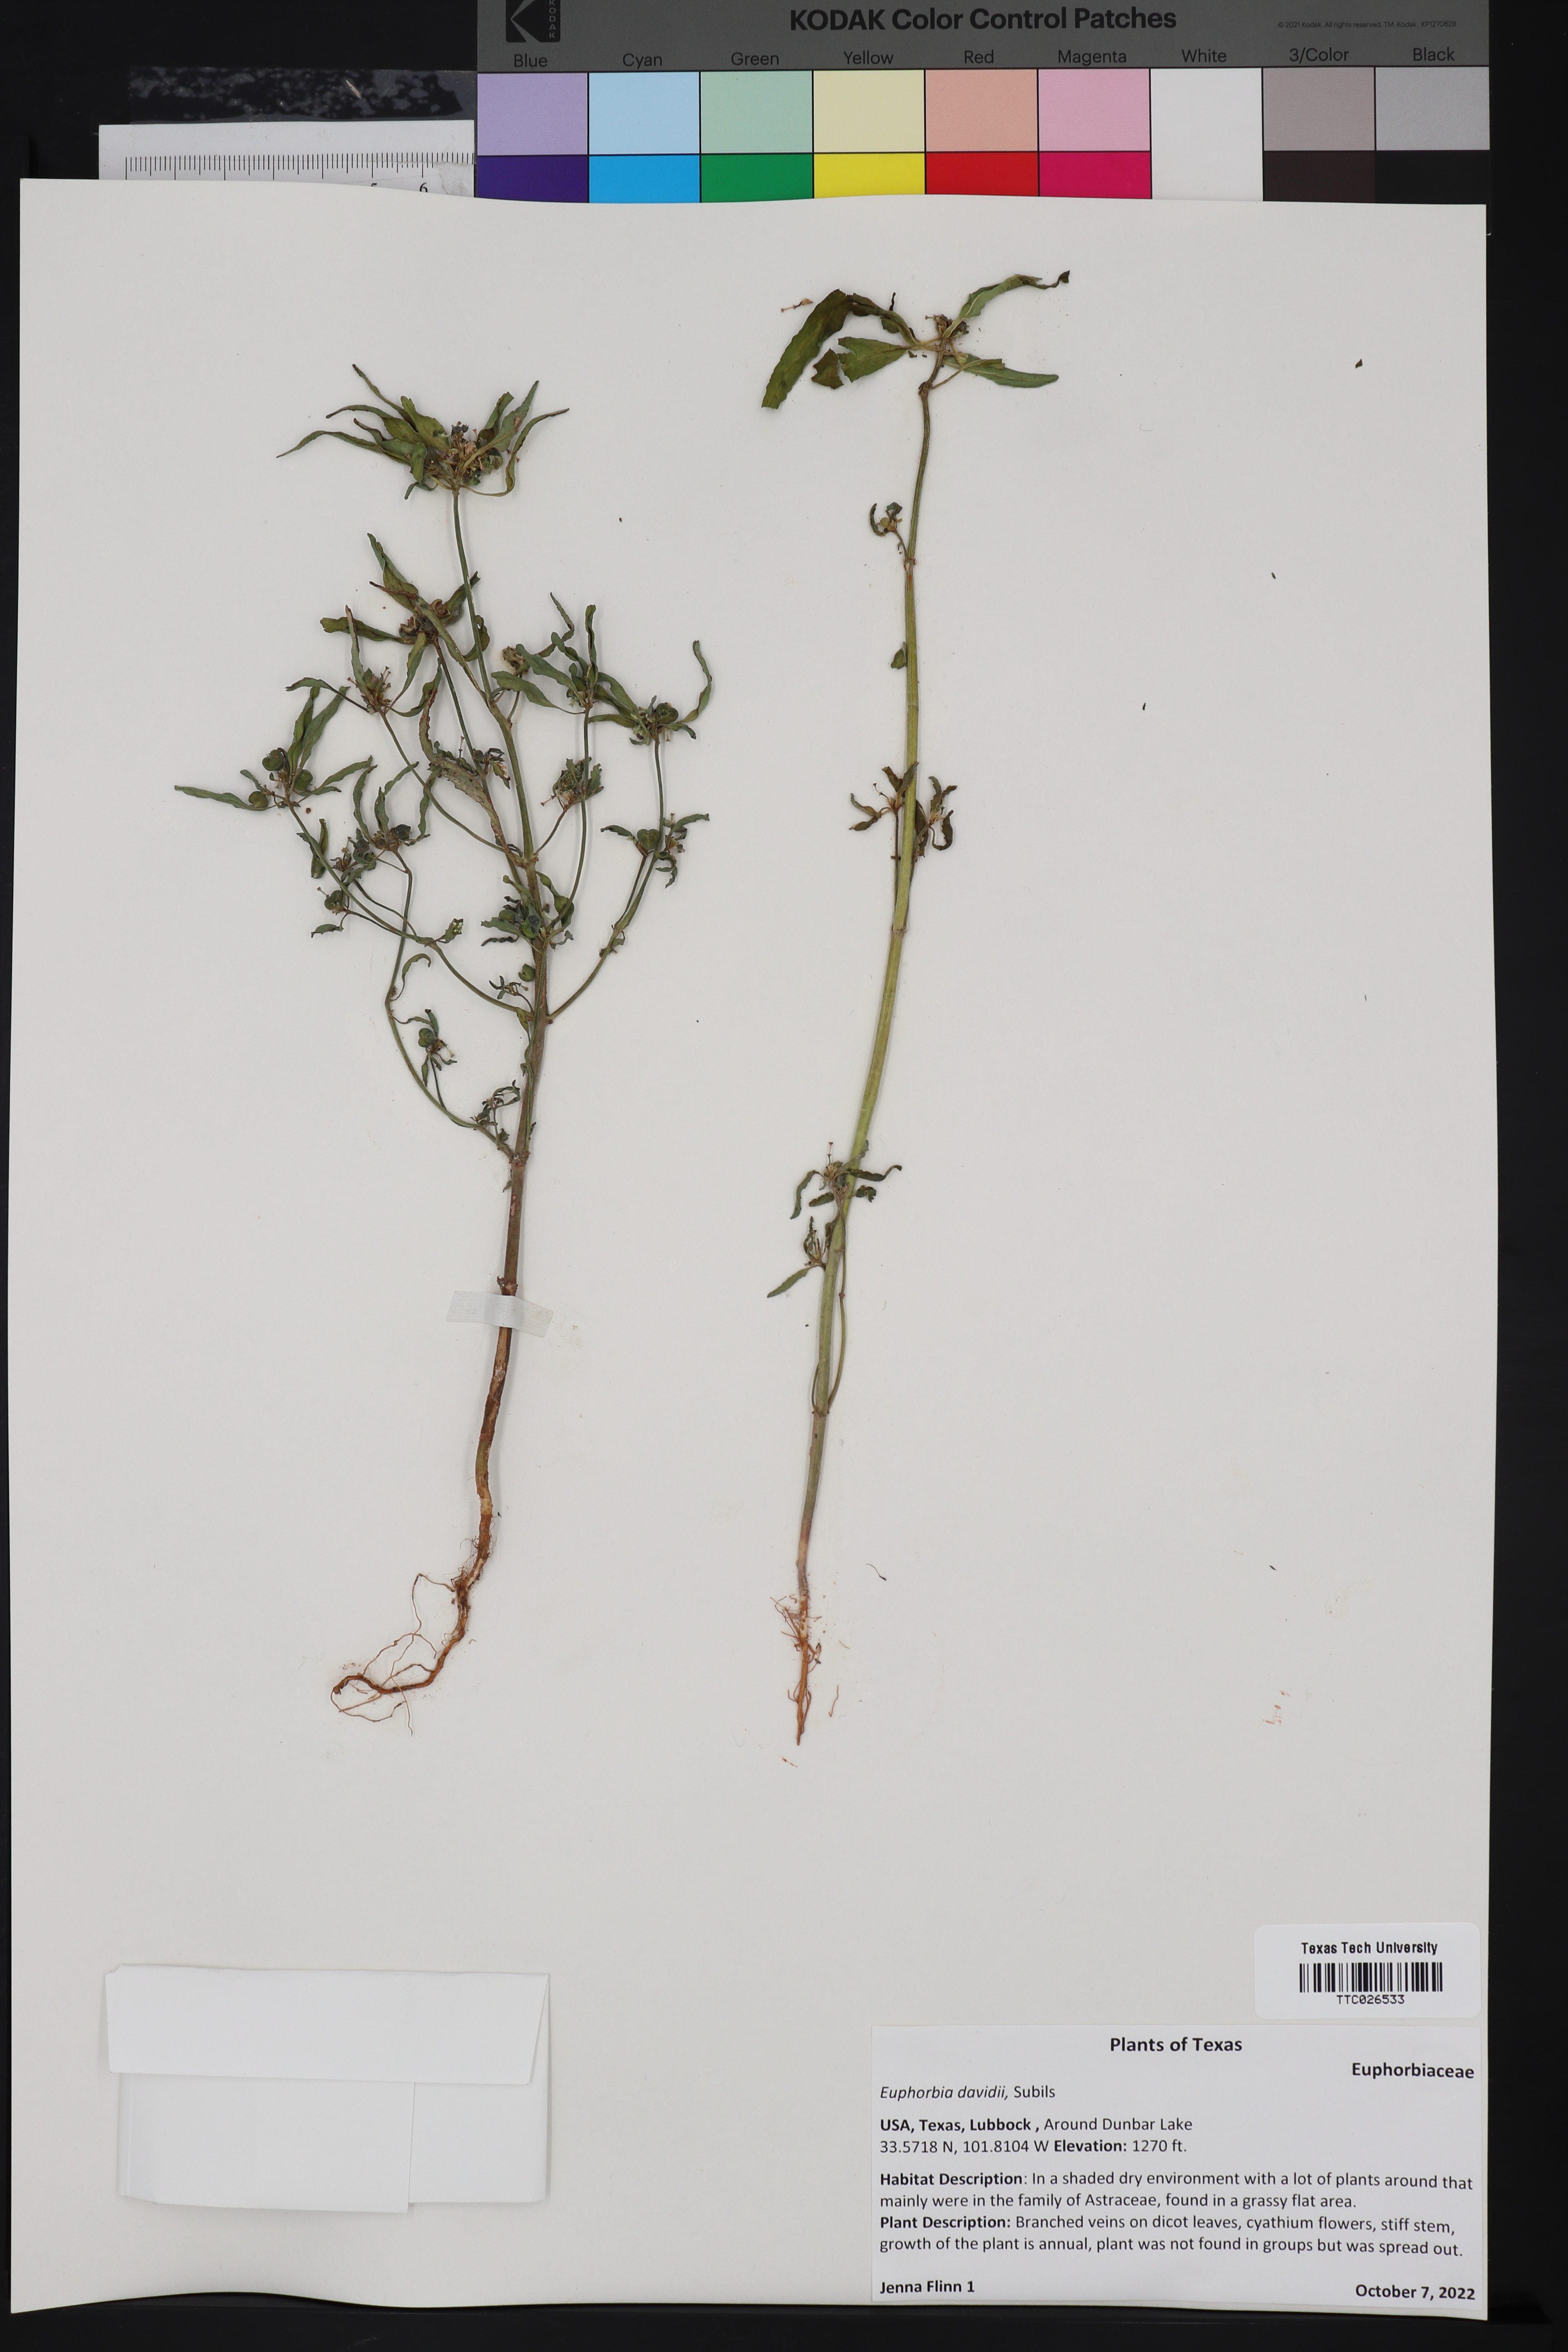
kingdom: Plantae
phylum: Tracheophyta
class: Magnoliopsida
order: Malpighiales
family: Euphorbiaceae
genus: Euphorbia
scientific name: Euphorbia davidii
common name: David's spurge
